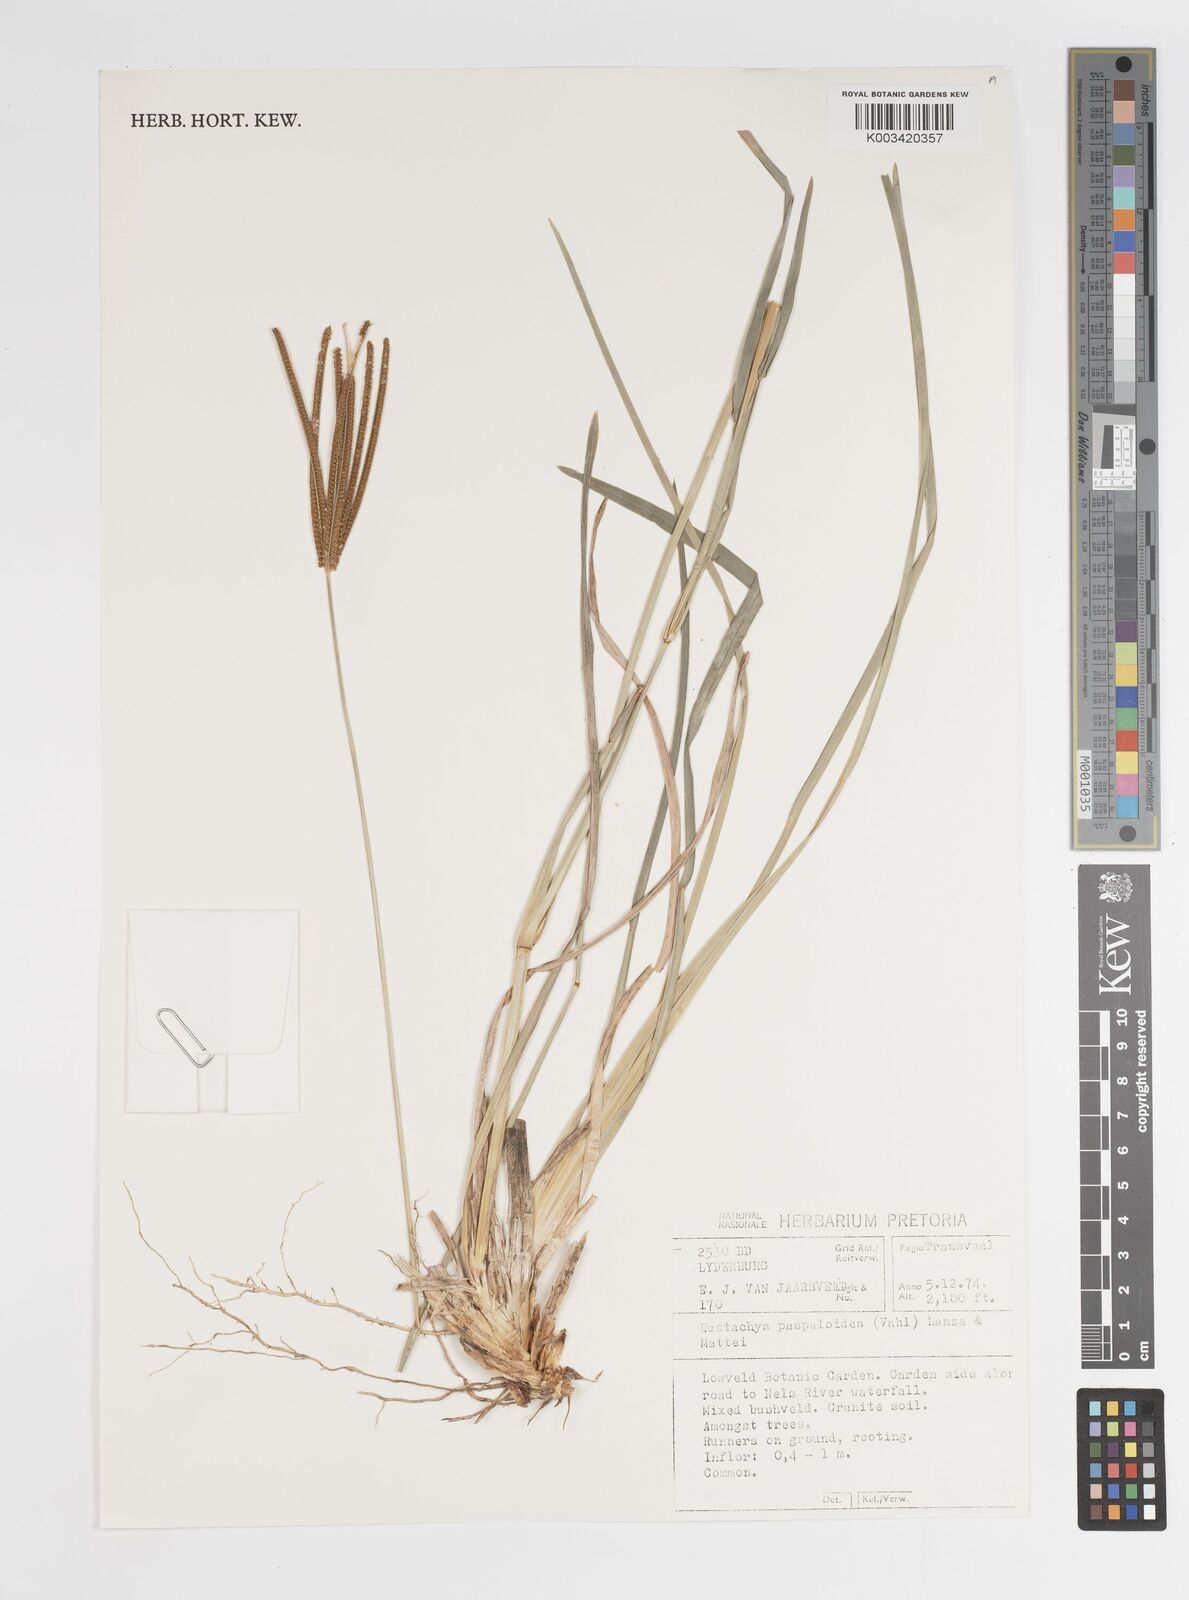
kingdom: Plantae
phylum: Tracheophyta
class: Liliopsida
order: Poales
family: Poaceae
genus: Eustachys
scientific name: Eustachys paspaloides
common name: Caribbean fingergrass
